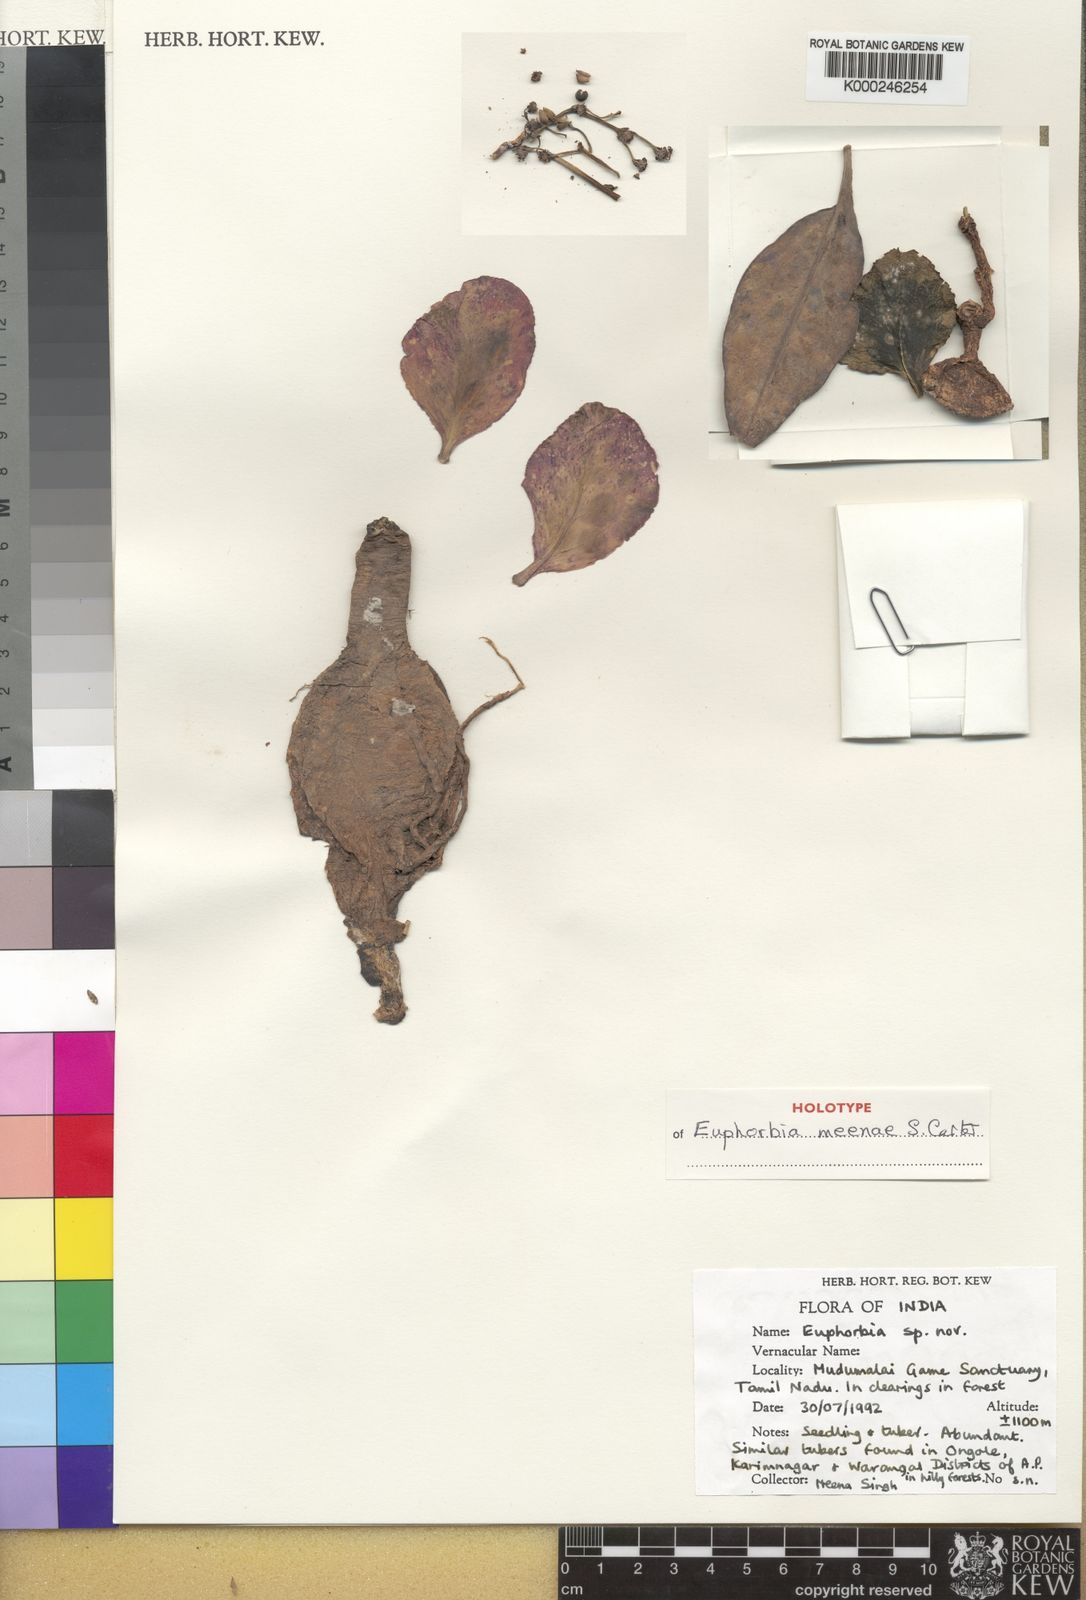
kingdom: Plantae
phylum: Tracheophyta
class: Magnoliopsida
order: Malpighiales
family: Euphorbiaceae
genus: Euphorbia
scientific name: Euphorbia meenae
